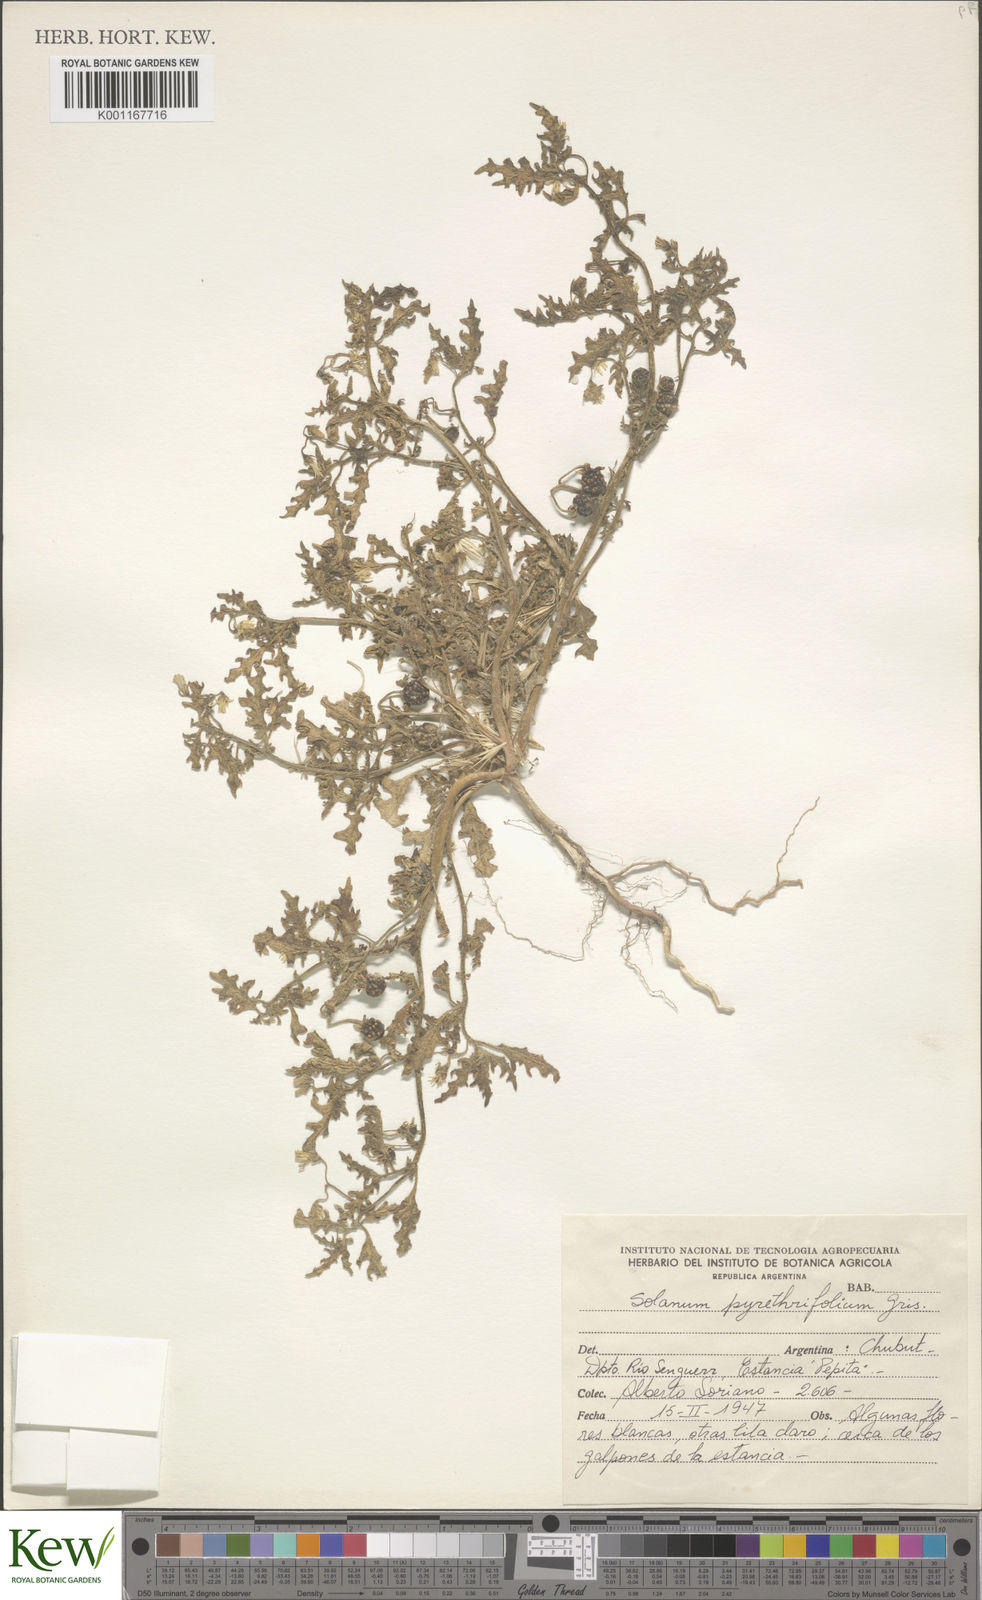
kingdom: Plantae
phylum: Tracheophyta
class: Magnoliopsida
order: Solanales
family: Solanaceae
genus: Solanum
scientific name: Solanum triflorum
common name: Small nightshade
